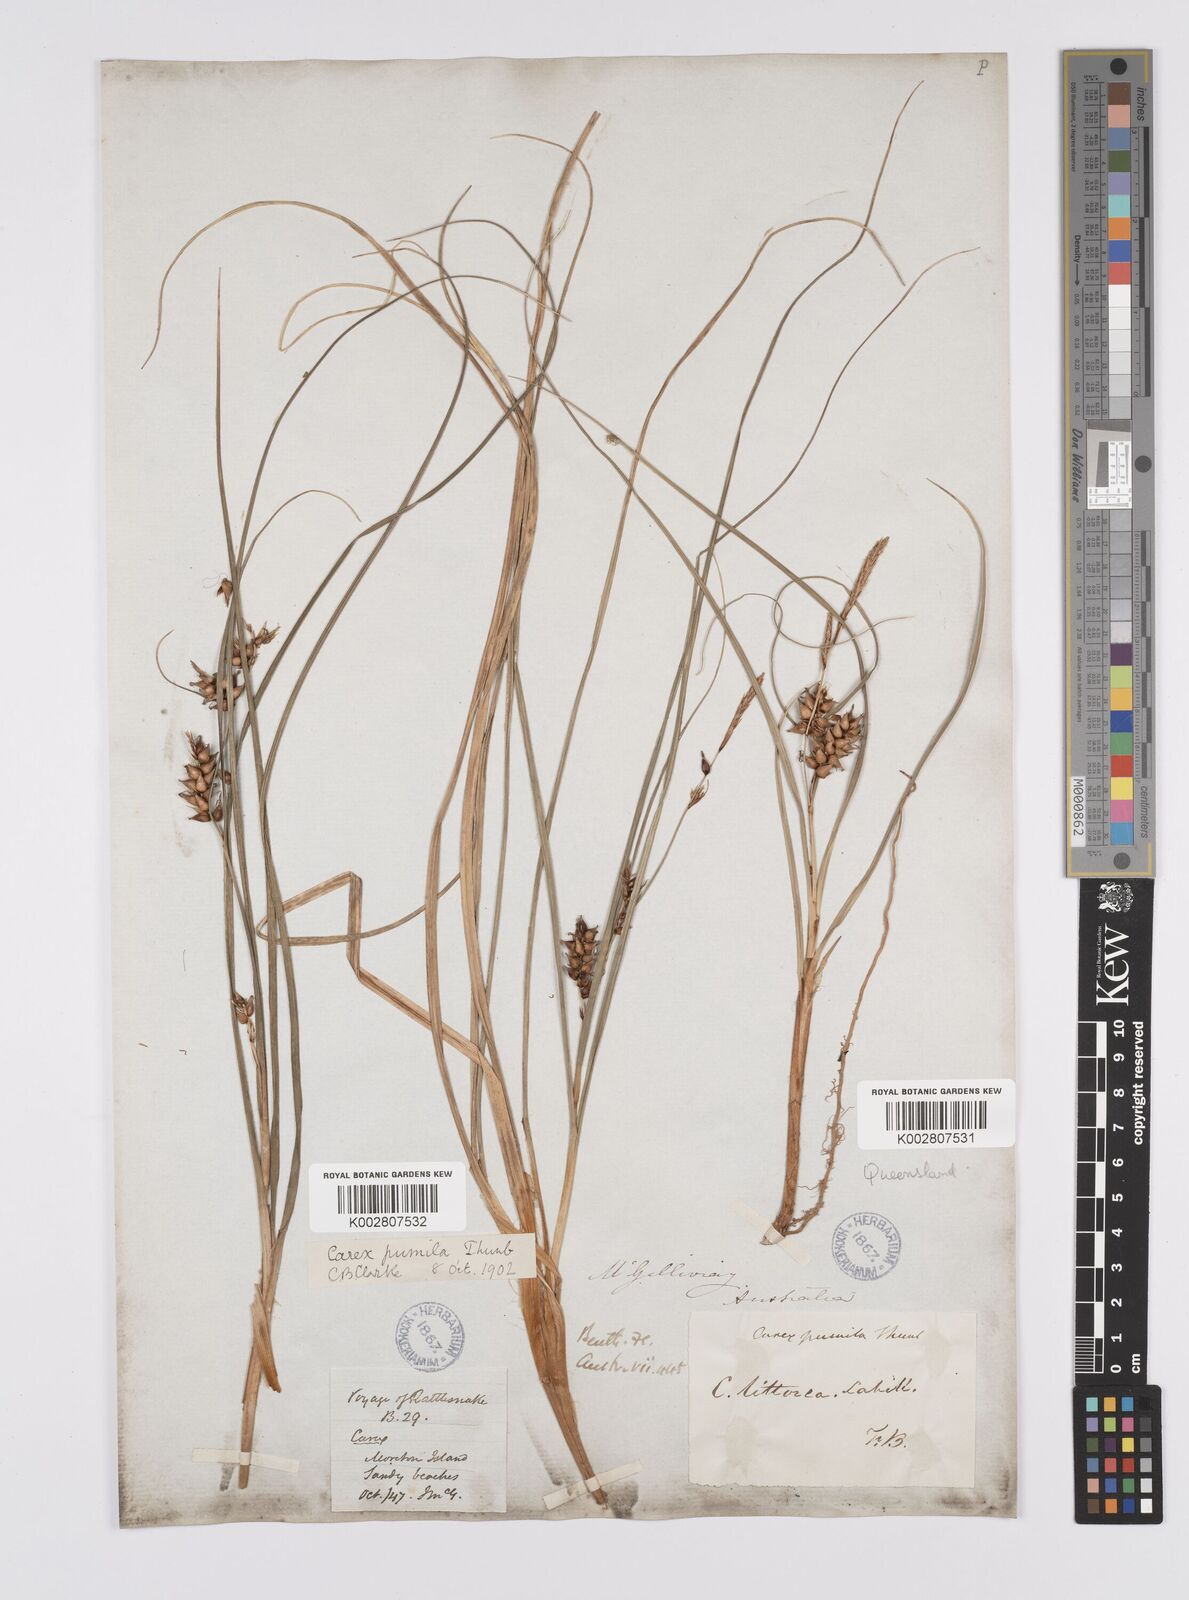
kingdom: Plantae
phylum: Tracheophyta
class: Liliopsida
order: Poales
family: Cyperaceae
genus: Carex
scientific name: Carex pumila
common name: Dwarf sedge
